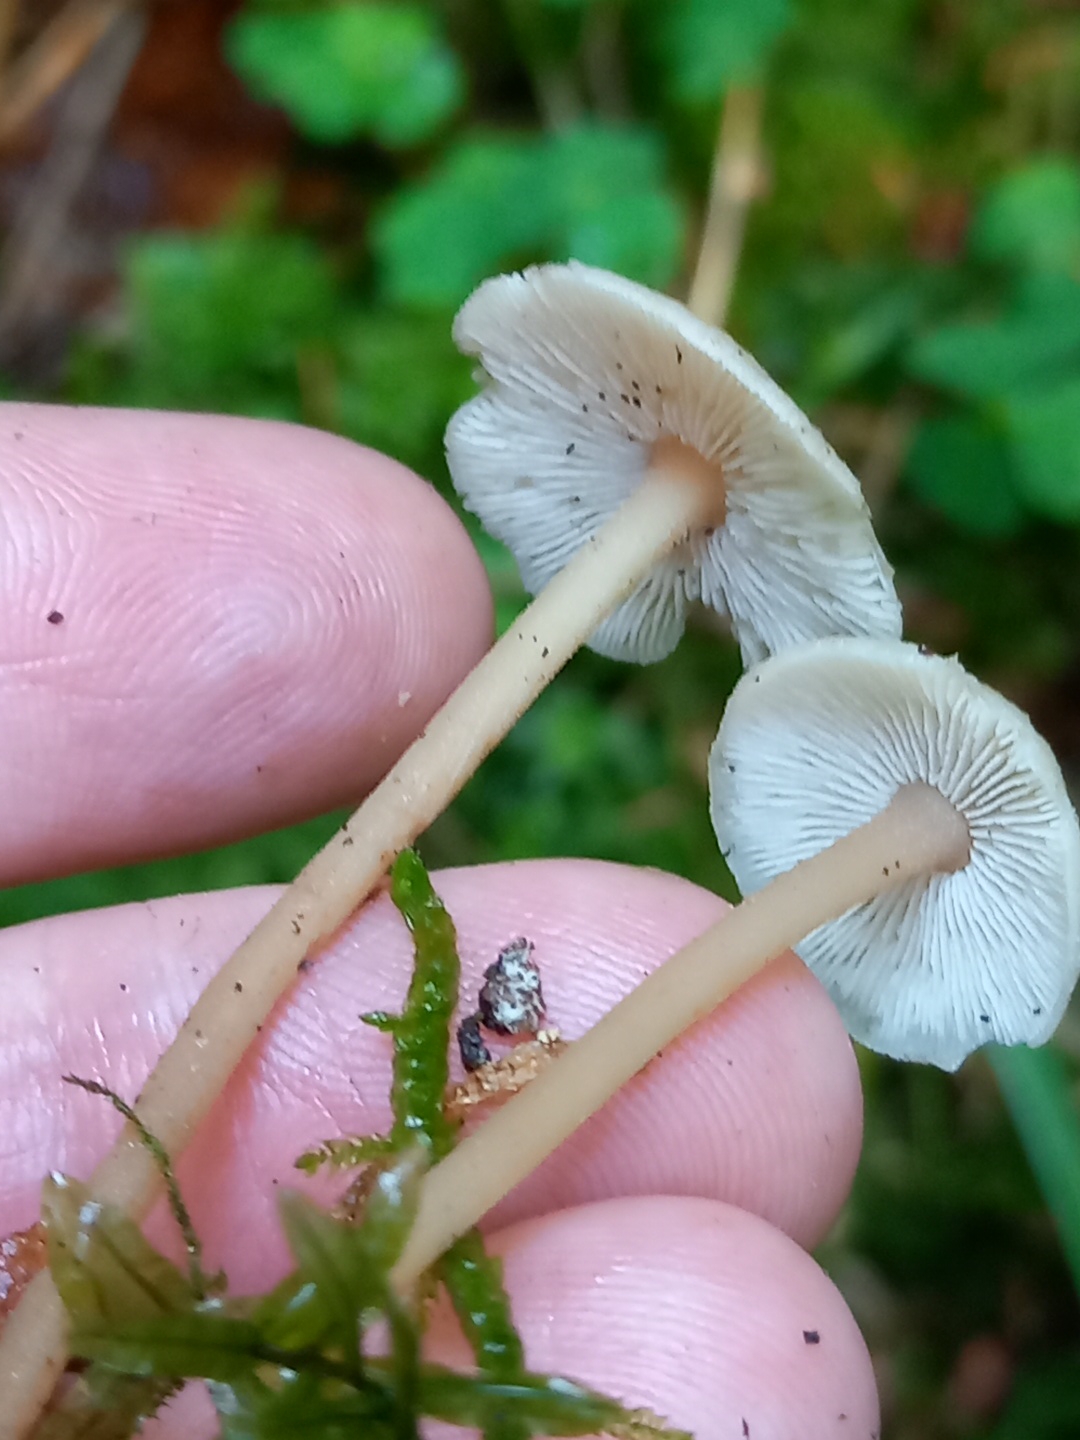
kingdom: Fungi
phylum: Basidiomycota
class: Agaricomycetes
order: Agaricales
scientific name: Agaricales
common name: champignonordenen
